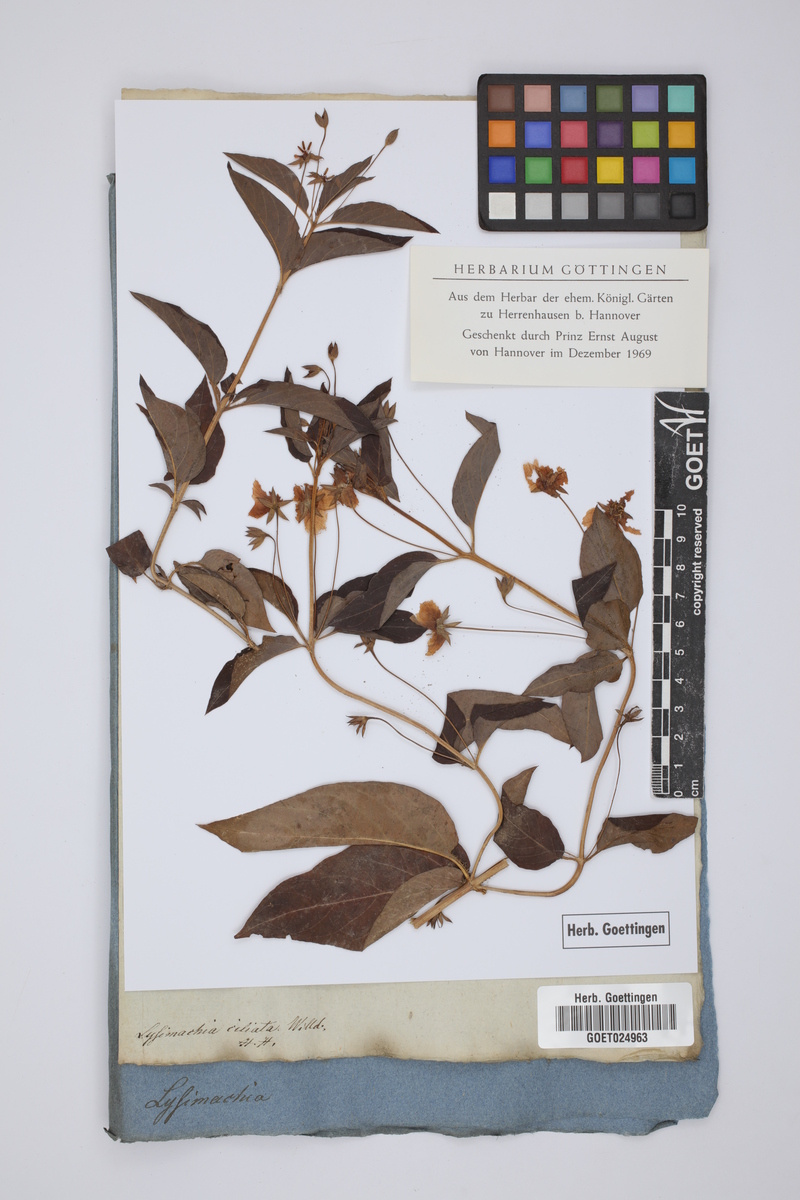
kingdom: Plantae
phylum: Tracheophyta
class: Magnoliopsida
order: Ericales
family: Primulaceae
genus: Lysimachia
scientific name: Lysimachia ciliata
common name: Fringed loosestrife
